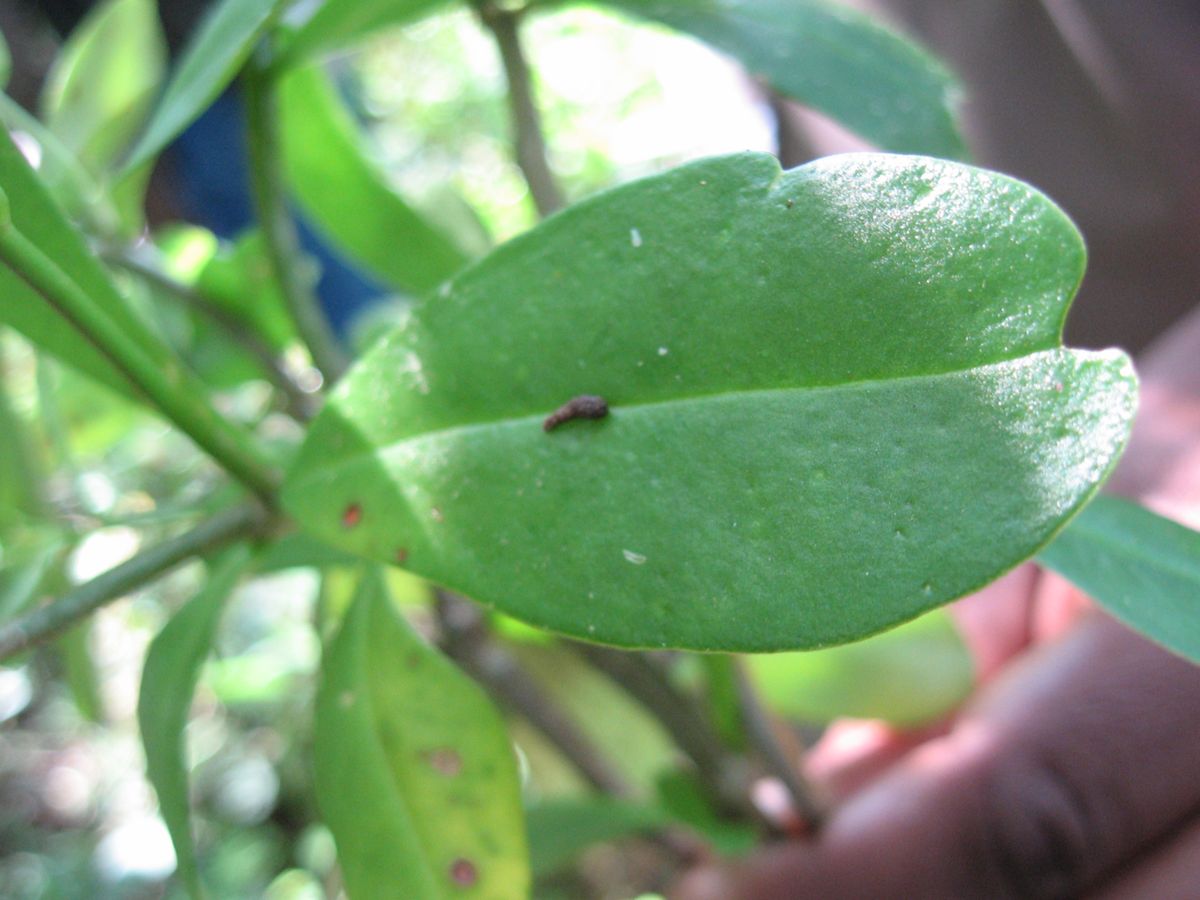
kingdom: Plantae
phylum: Tracheophyta
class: Magnoliopsida
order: Caryophyllales
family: Talinaceae
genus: Talinum
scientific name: Talinum fruticosum
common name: Verdolaga-francesa
